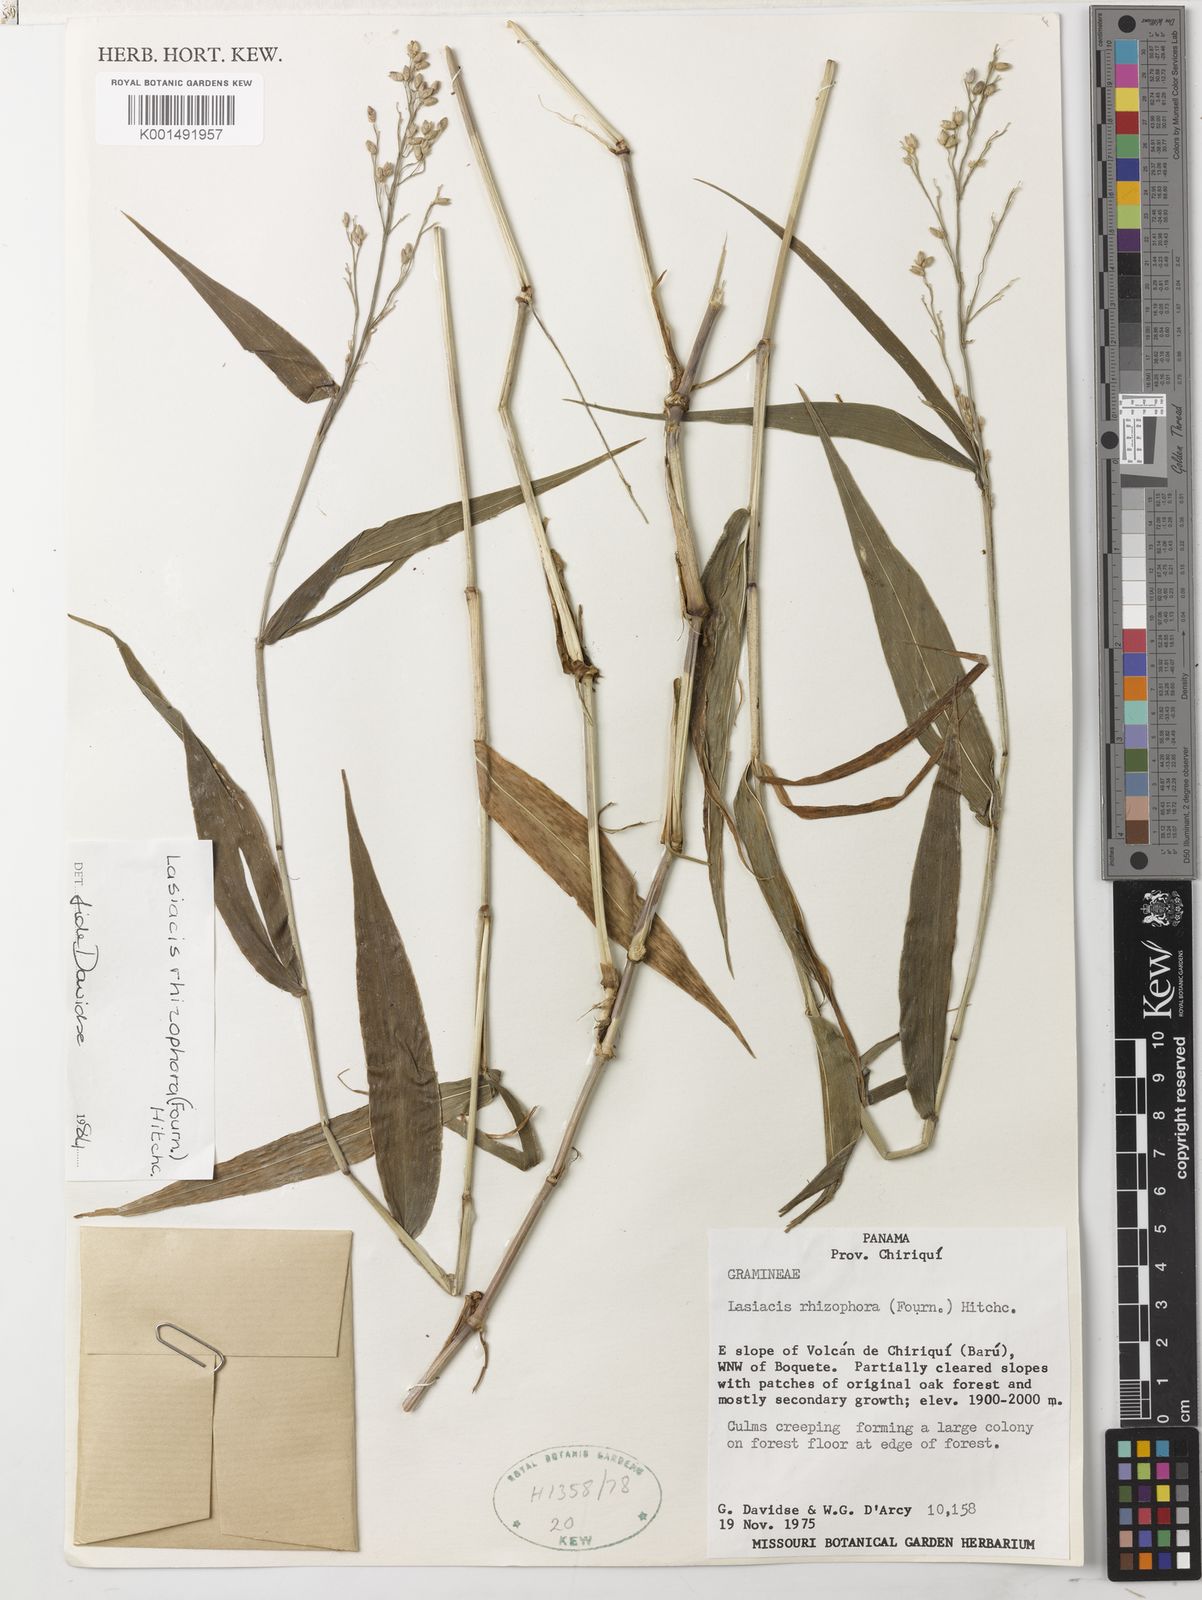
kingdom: Plantae
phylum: Tracheophyta
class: Liliopsida
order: Poales
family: Poaceae
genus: Lasiacis
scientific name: Lasiacis rhizophora
